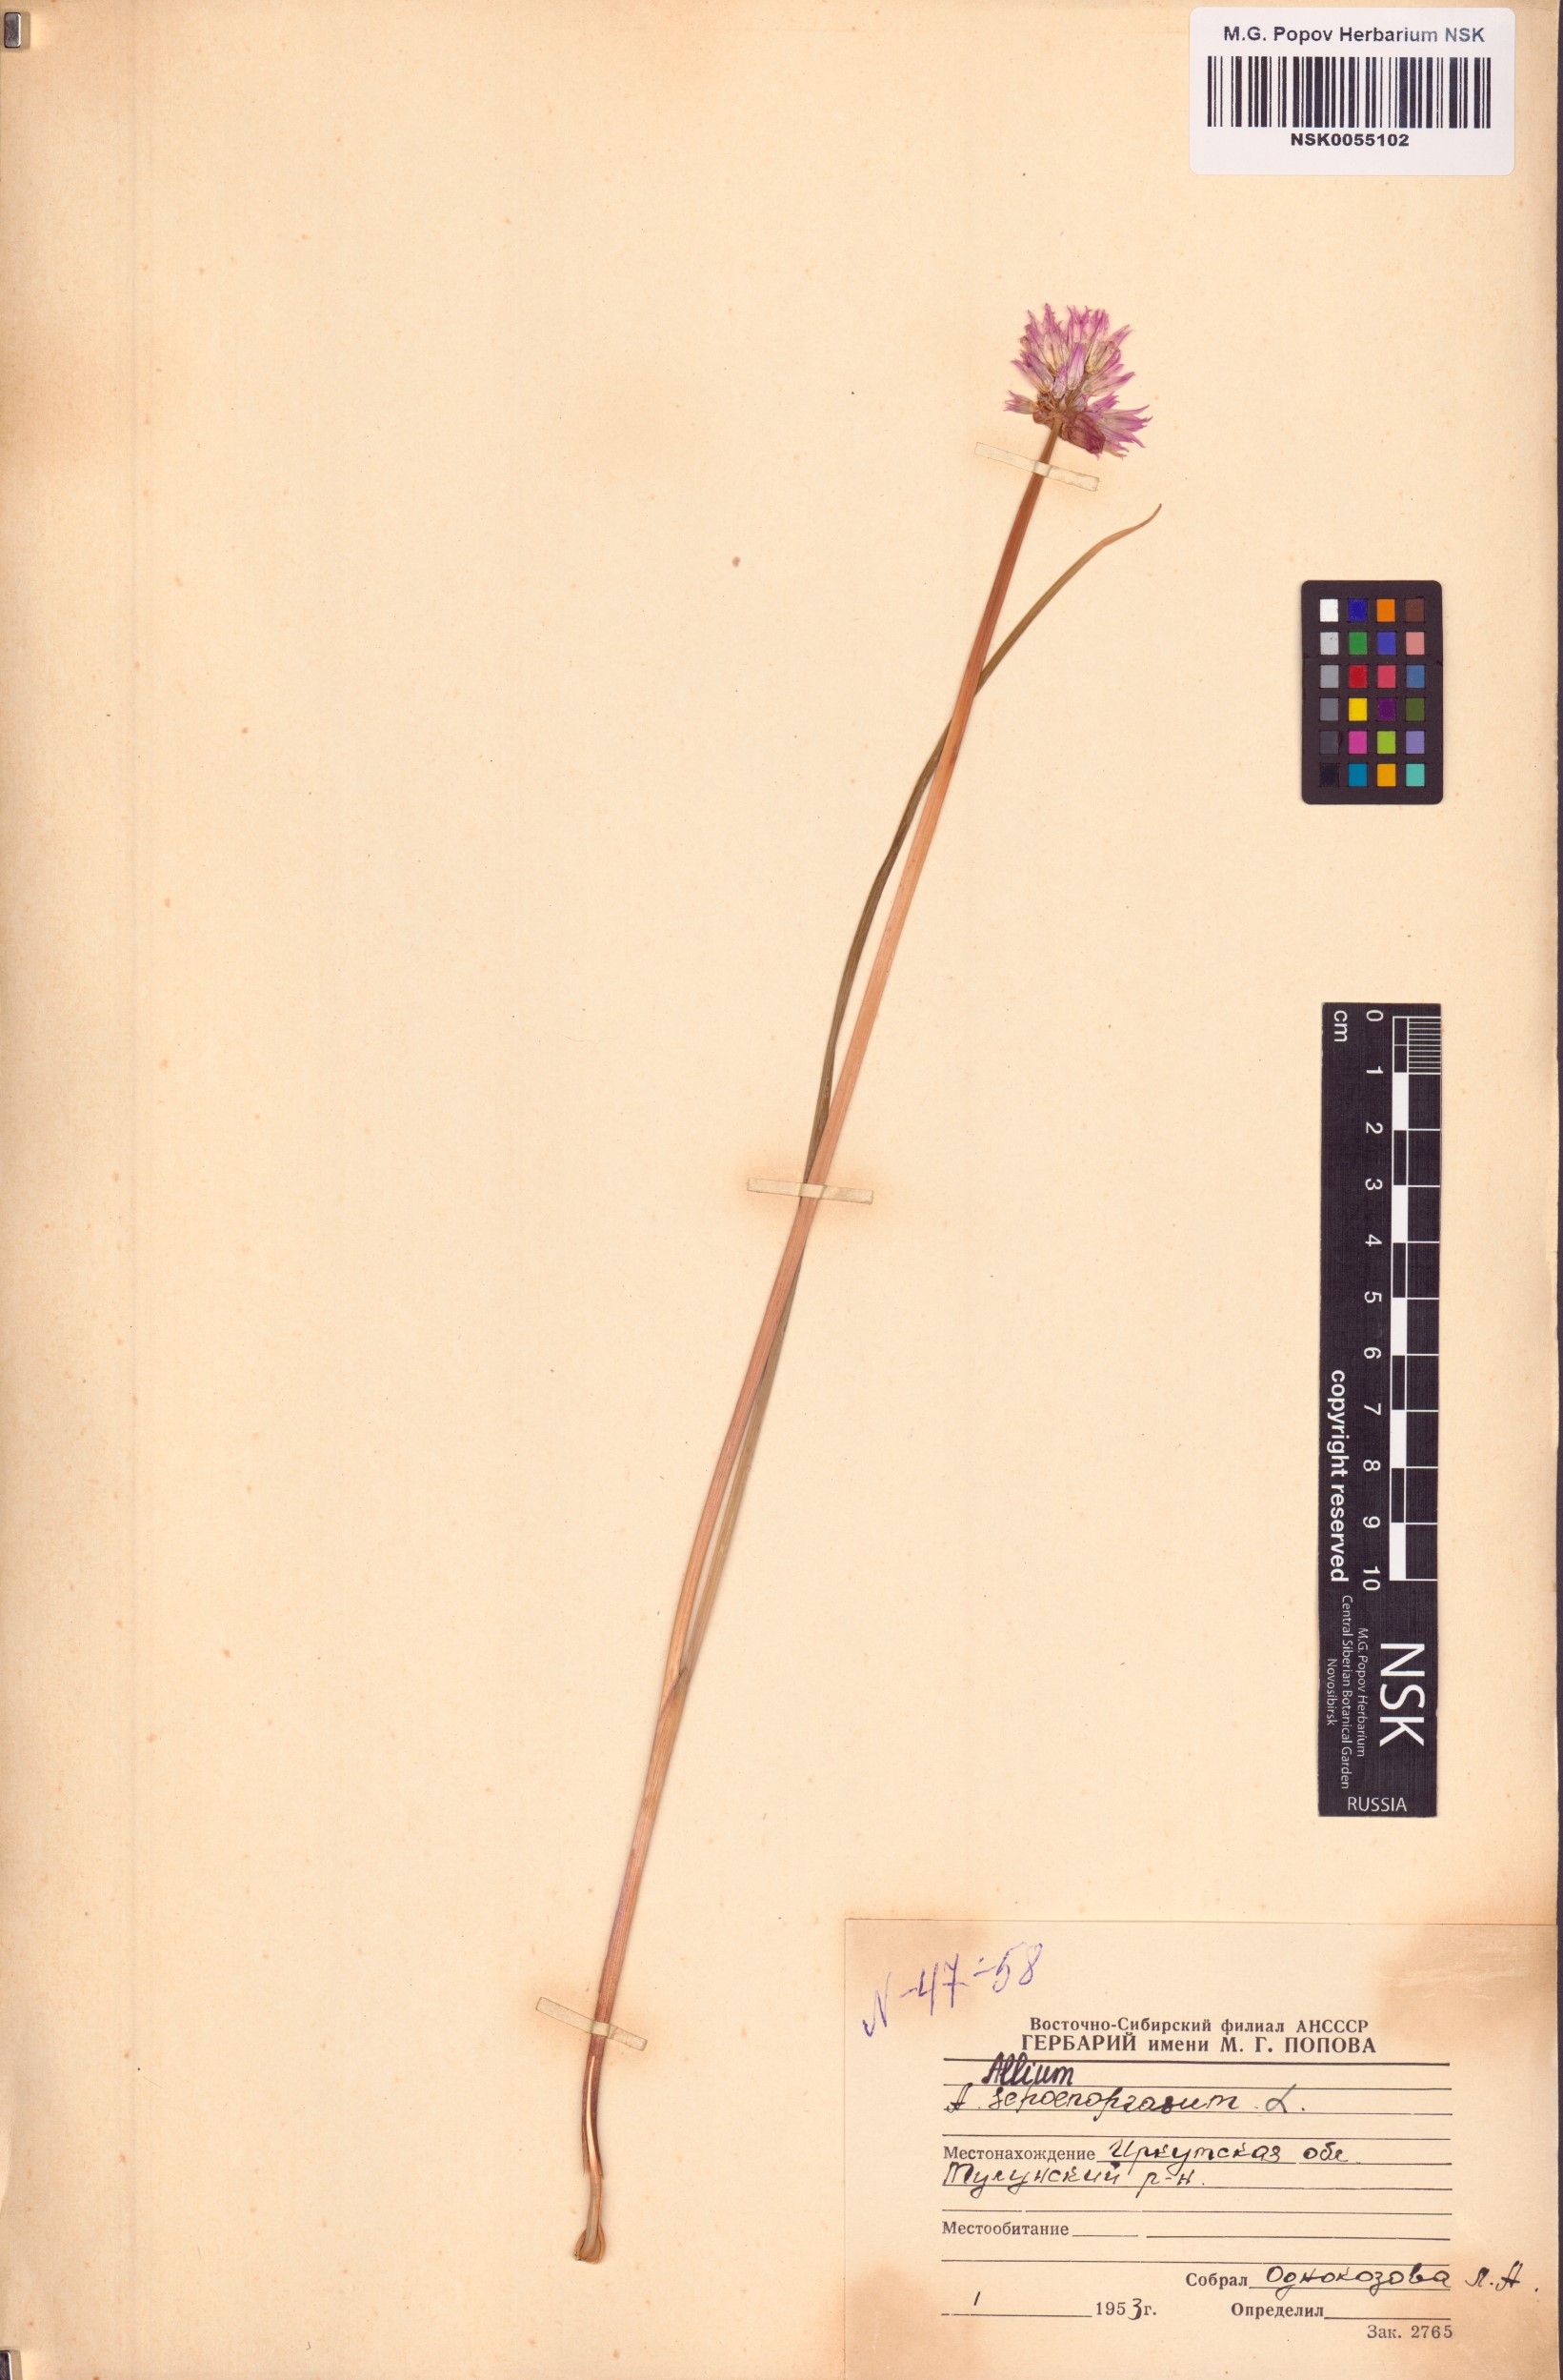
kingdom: Plantae
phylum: Tracheophyta
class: Liliopsida
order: Asparagales
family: Amaryllidaceae
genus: Allium
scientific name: Allium schoenoprasum
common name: Chives
